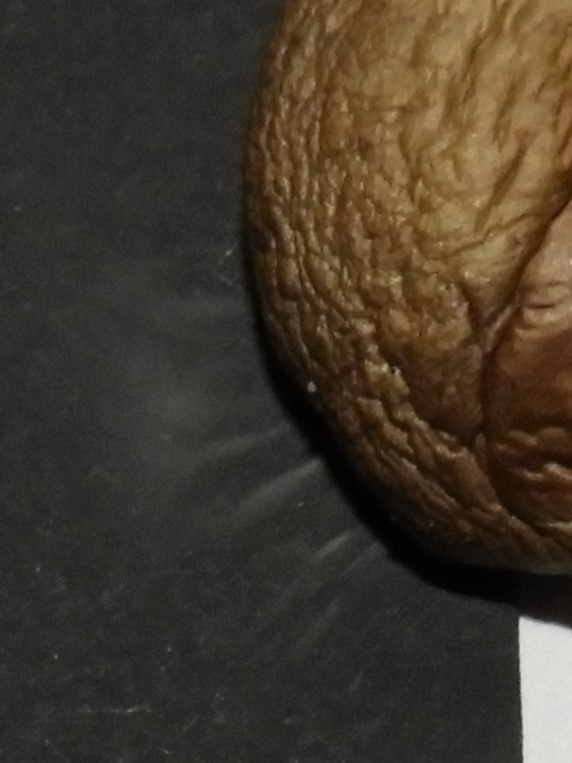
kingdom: Fungi
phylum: Basidiomycota
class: Agaricomycetes
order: Agaricales
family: Omphalotaceae
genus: Rhodocollybia
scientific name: Rhodocollybia asema
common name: horngrå fladhat
